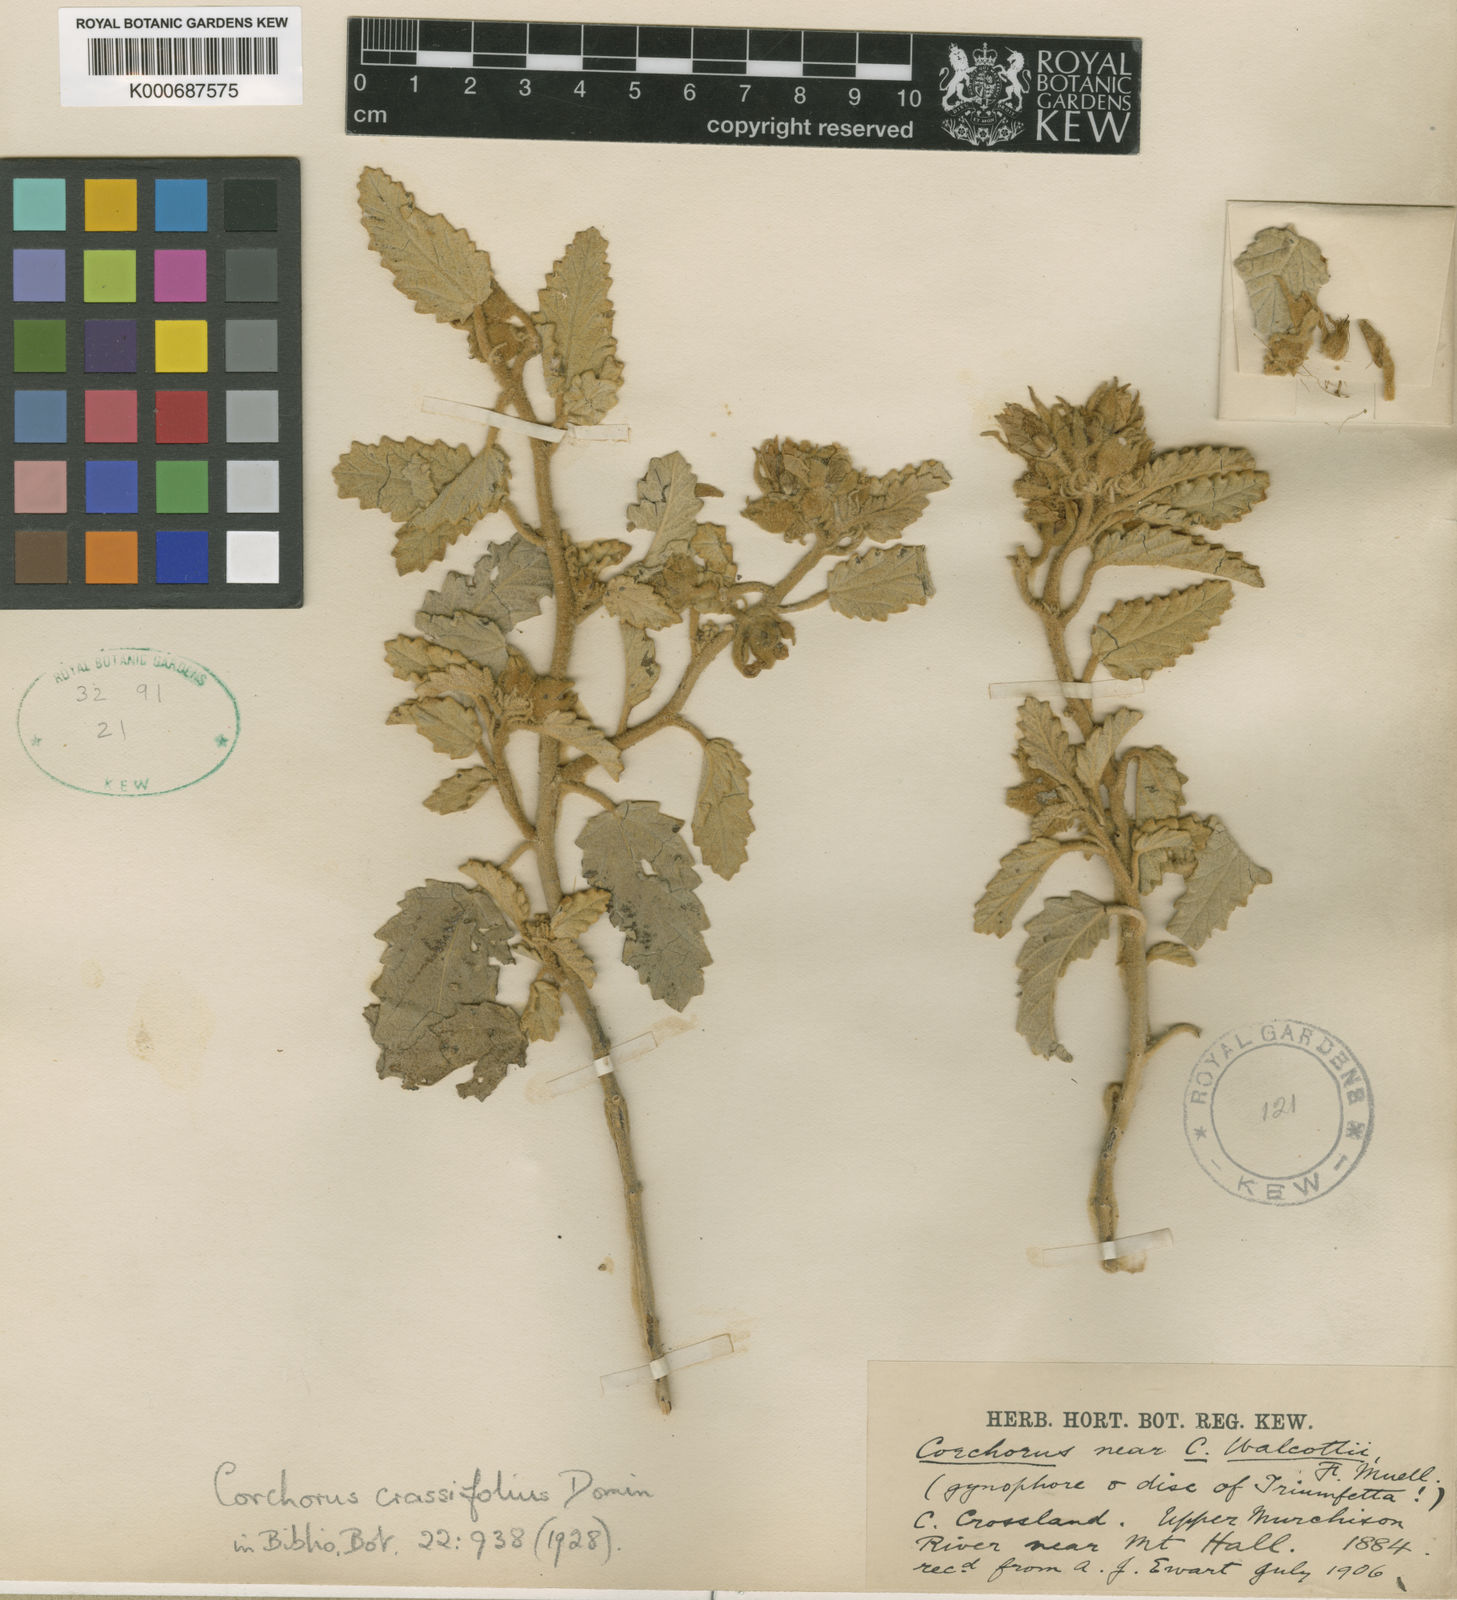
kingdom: Plantae
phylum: Tracheophyta
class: Magnoliopsida
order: Malvales
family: Malvaceae
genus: Corchorus
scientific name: Corchorus chrozophorifolius
